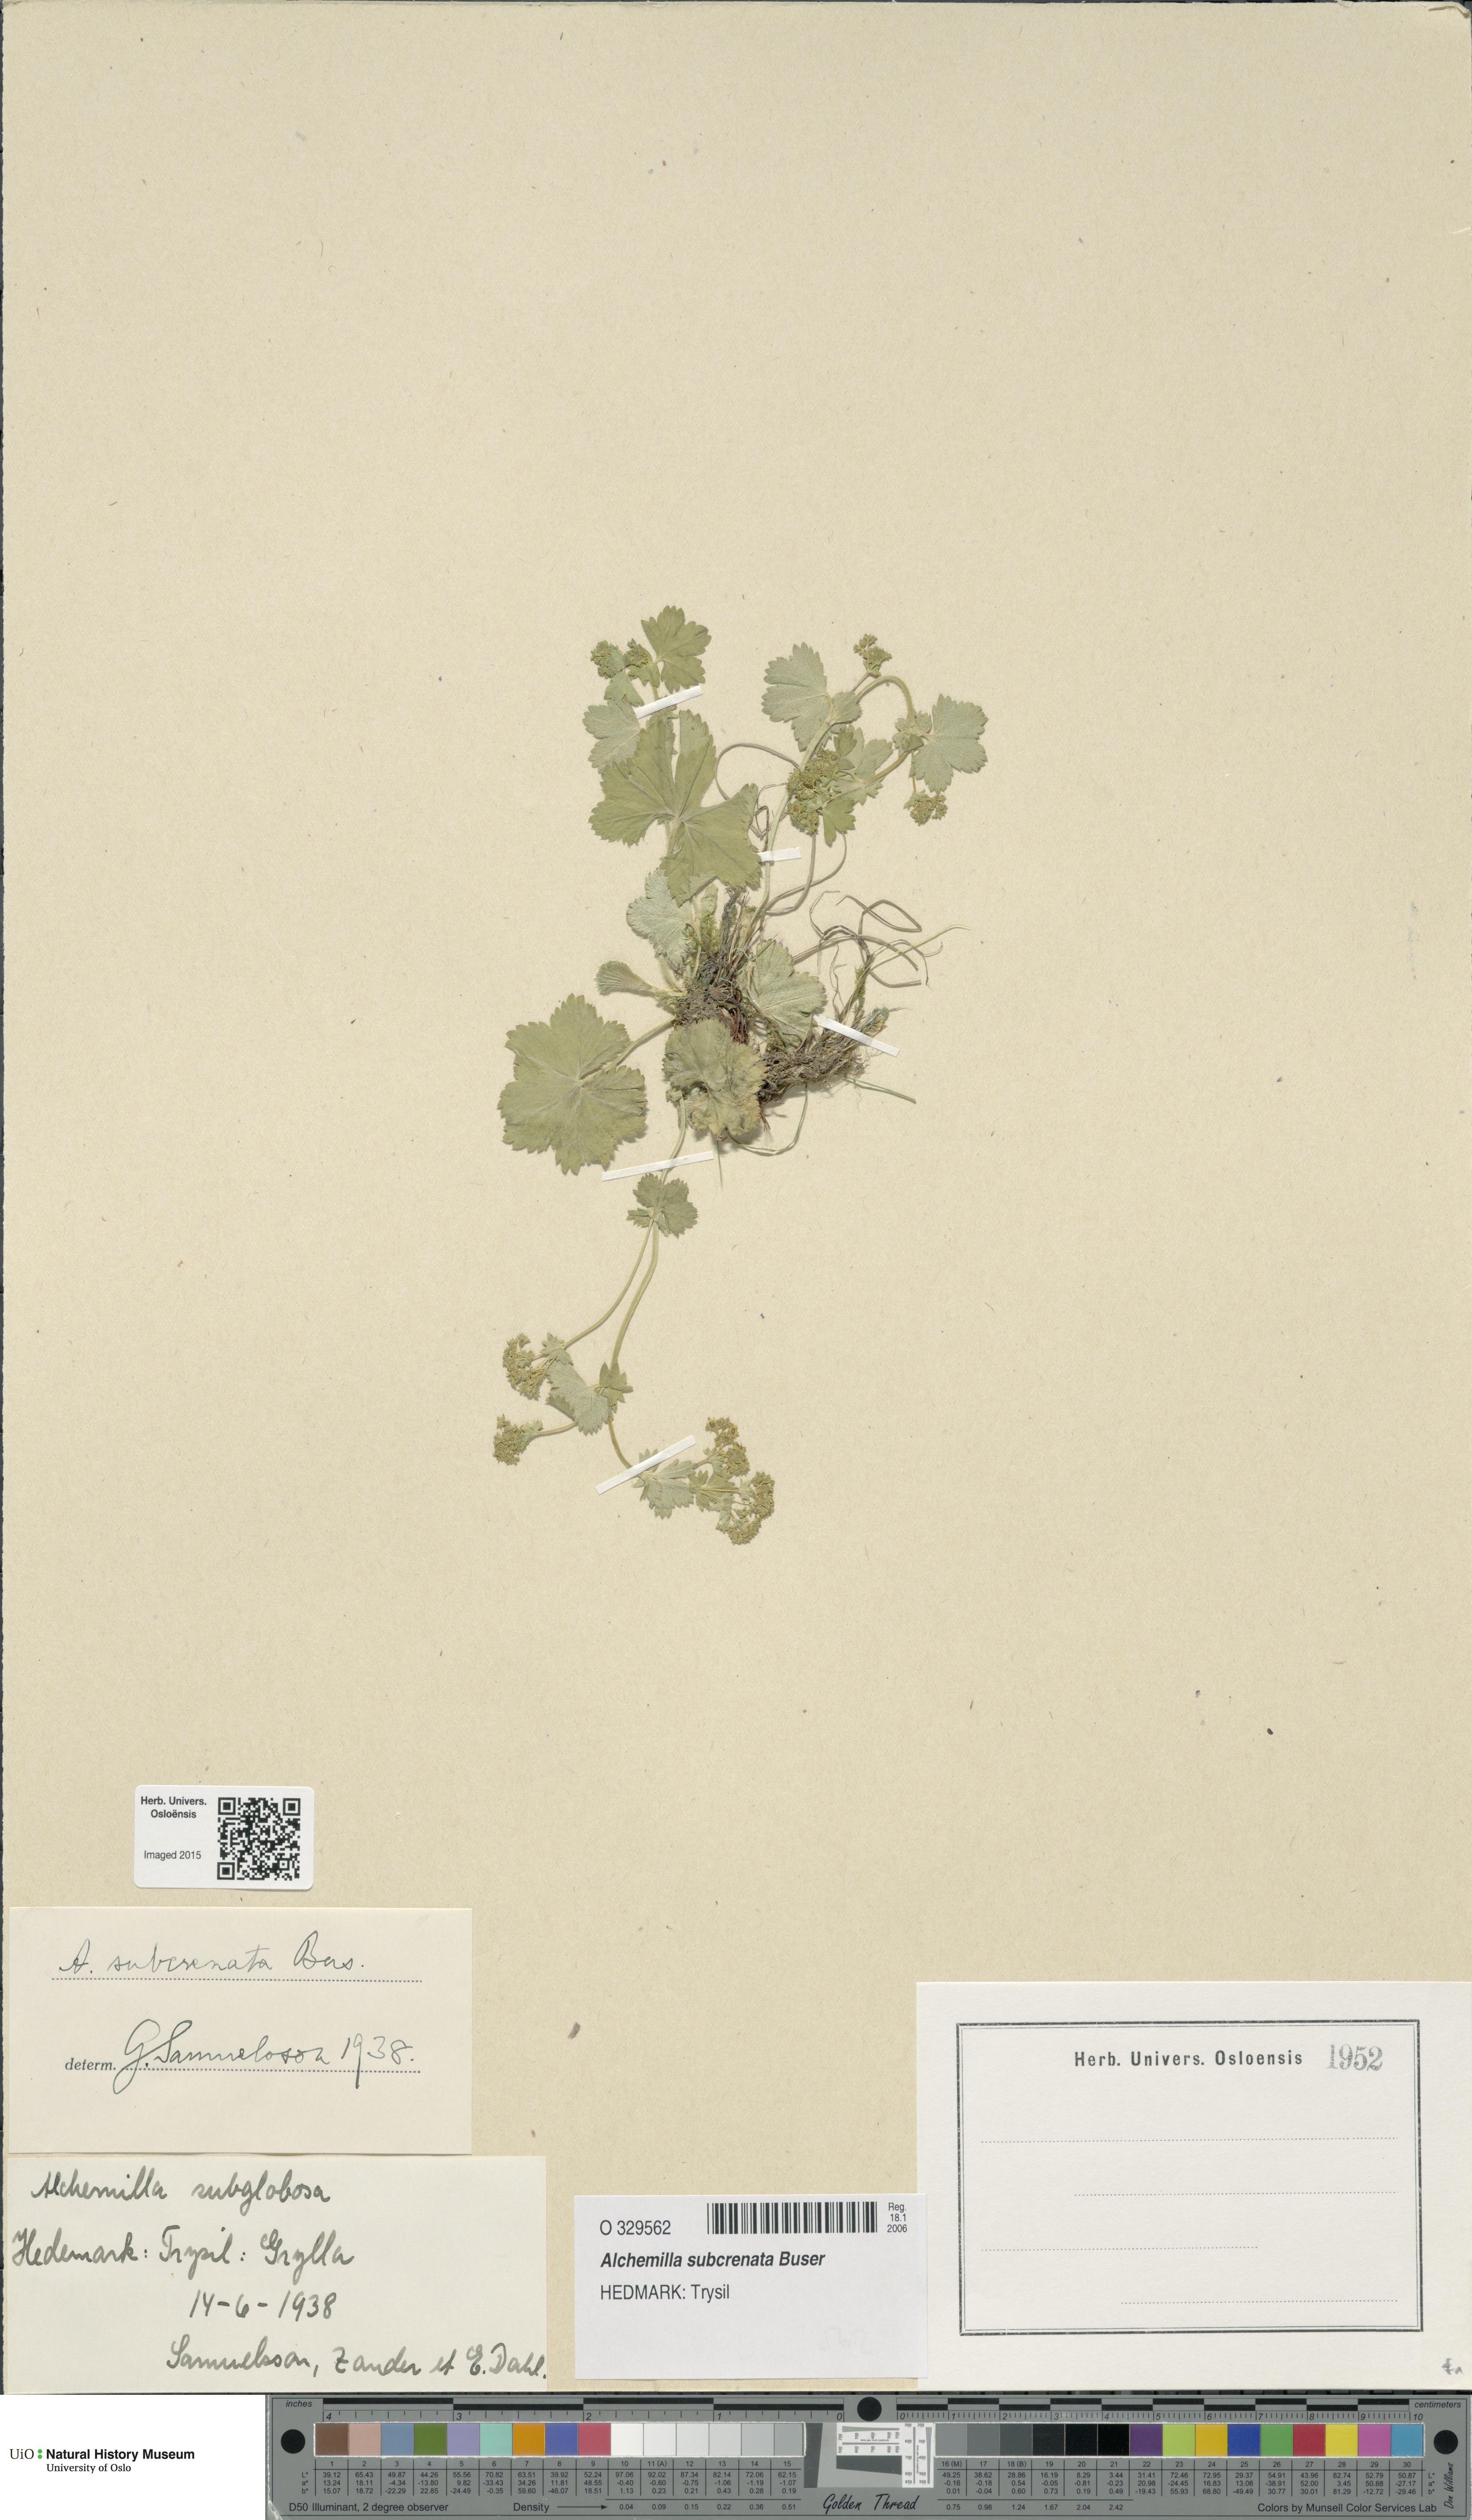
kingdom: Plantae
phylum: Tracheophyta
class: Magnoliopsida
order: Rosales
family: Rosaceae
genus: Alchemilla
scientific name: Alchemilla subcrenata
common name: Broadtooth lady's mantle
